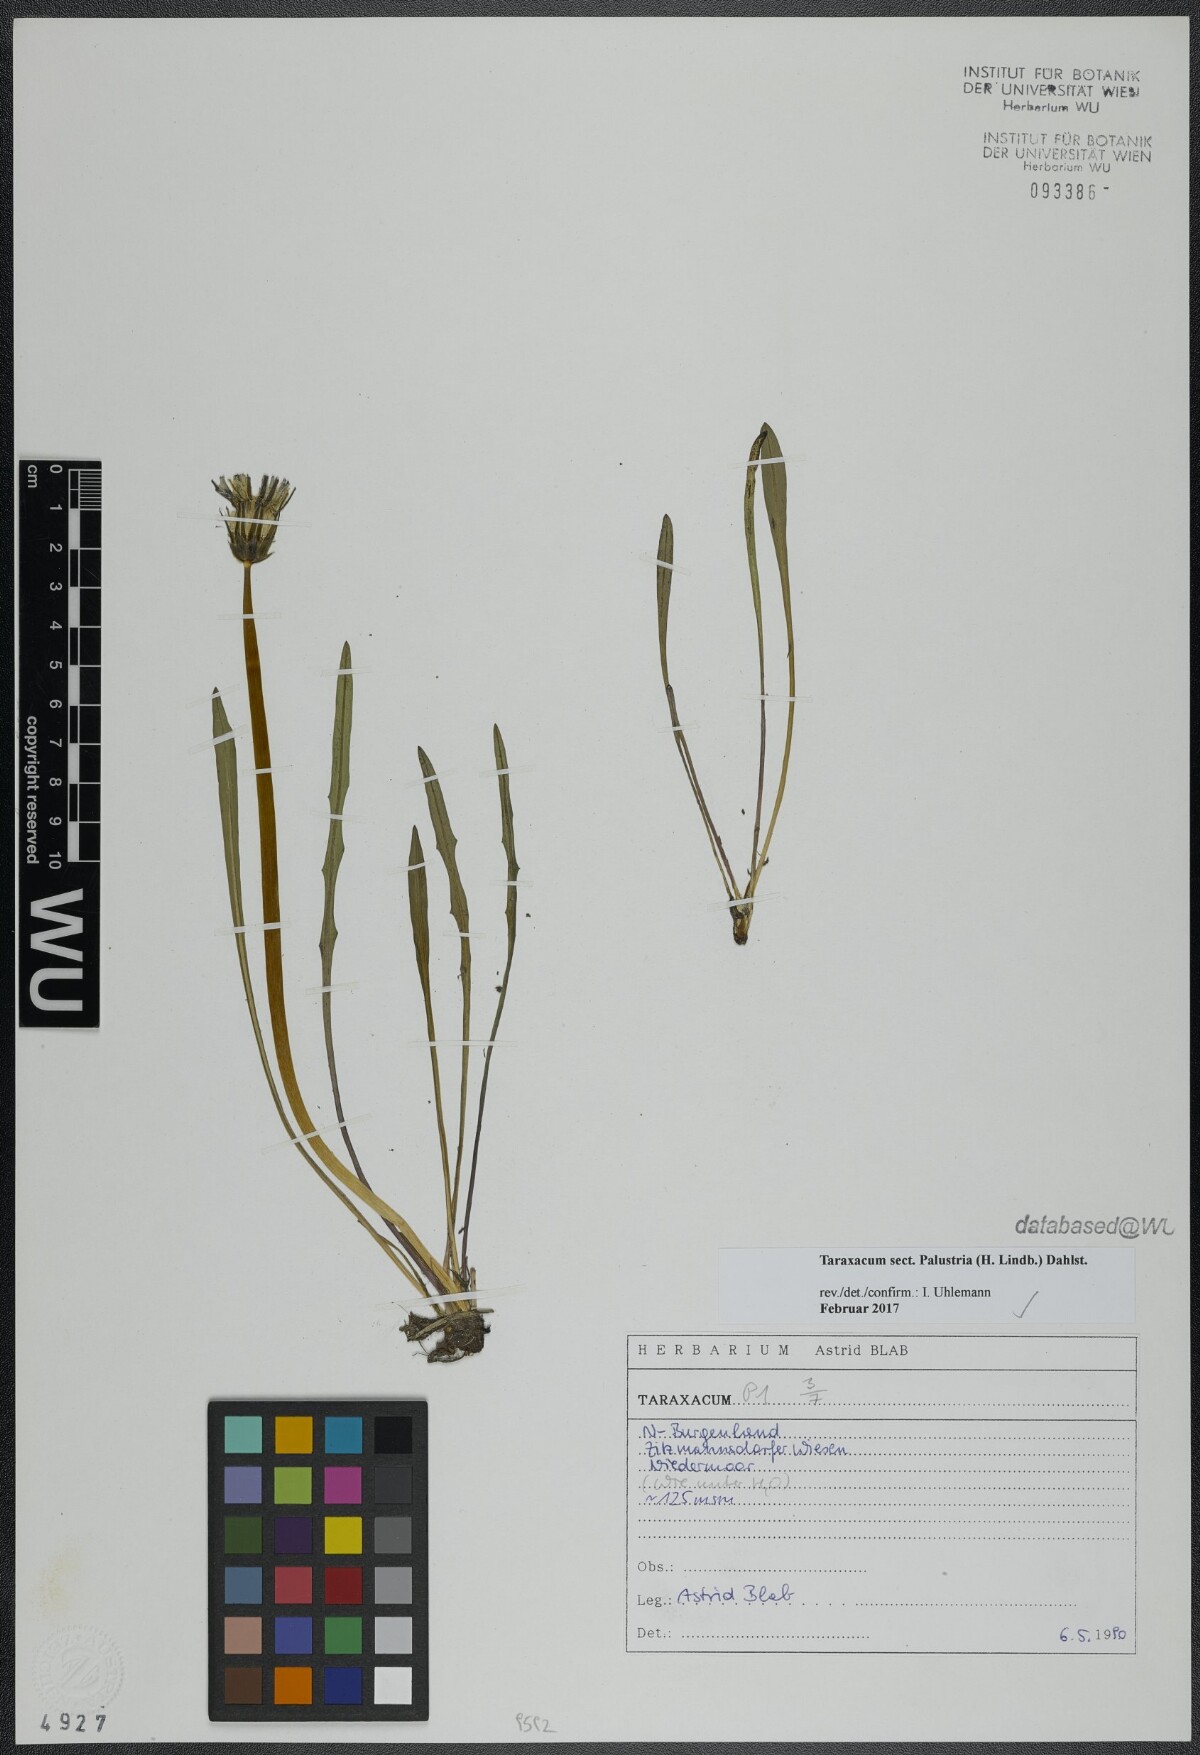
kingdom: Plantae
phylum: Tracheophyta
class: Magnoliopsida
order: Asterales
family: Asteraceae
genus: Taraxacum
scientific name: Taraxacum
